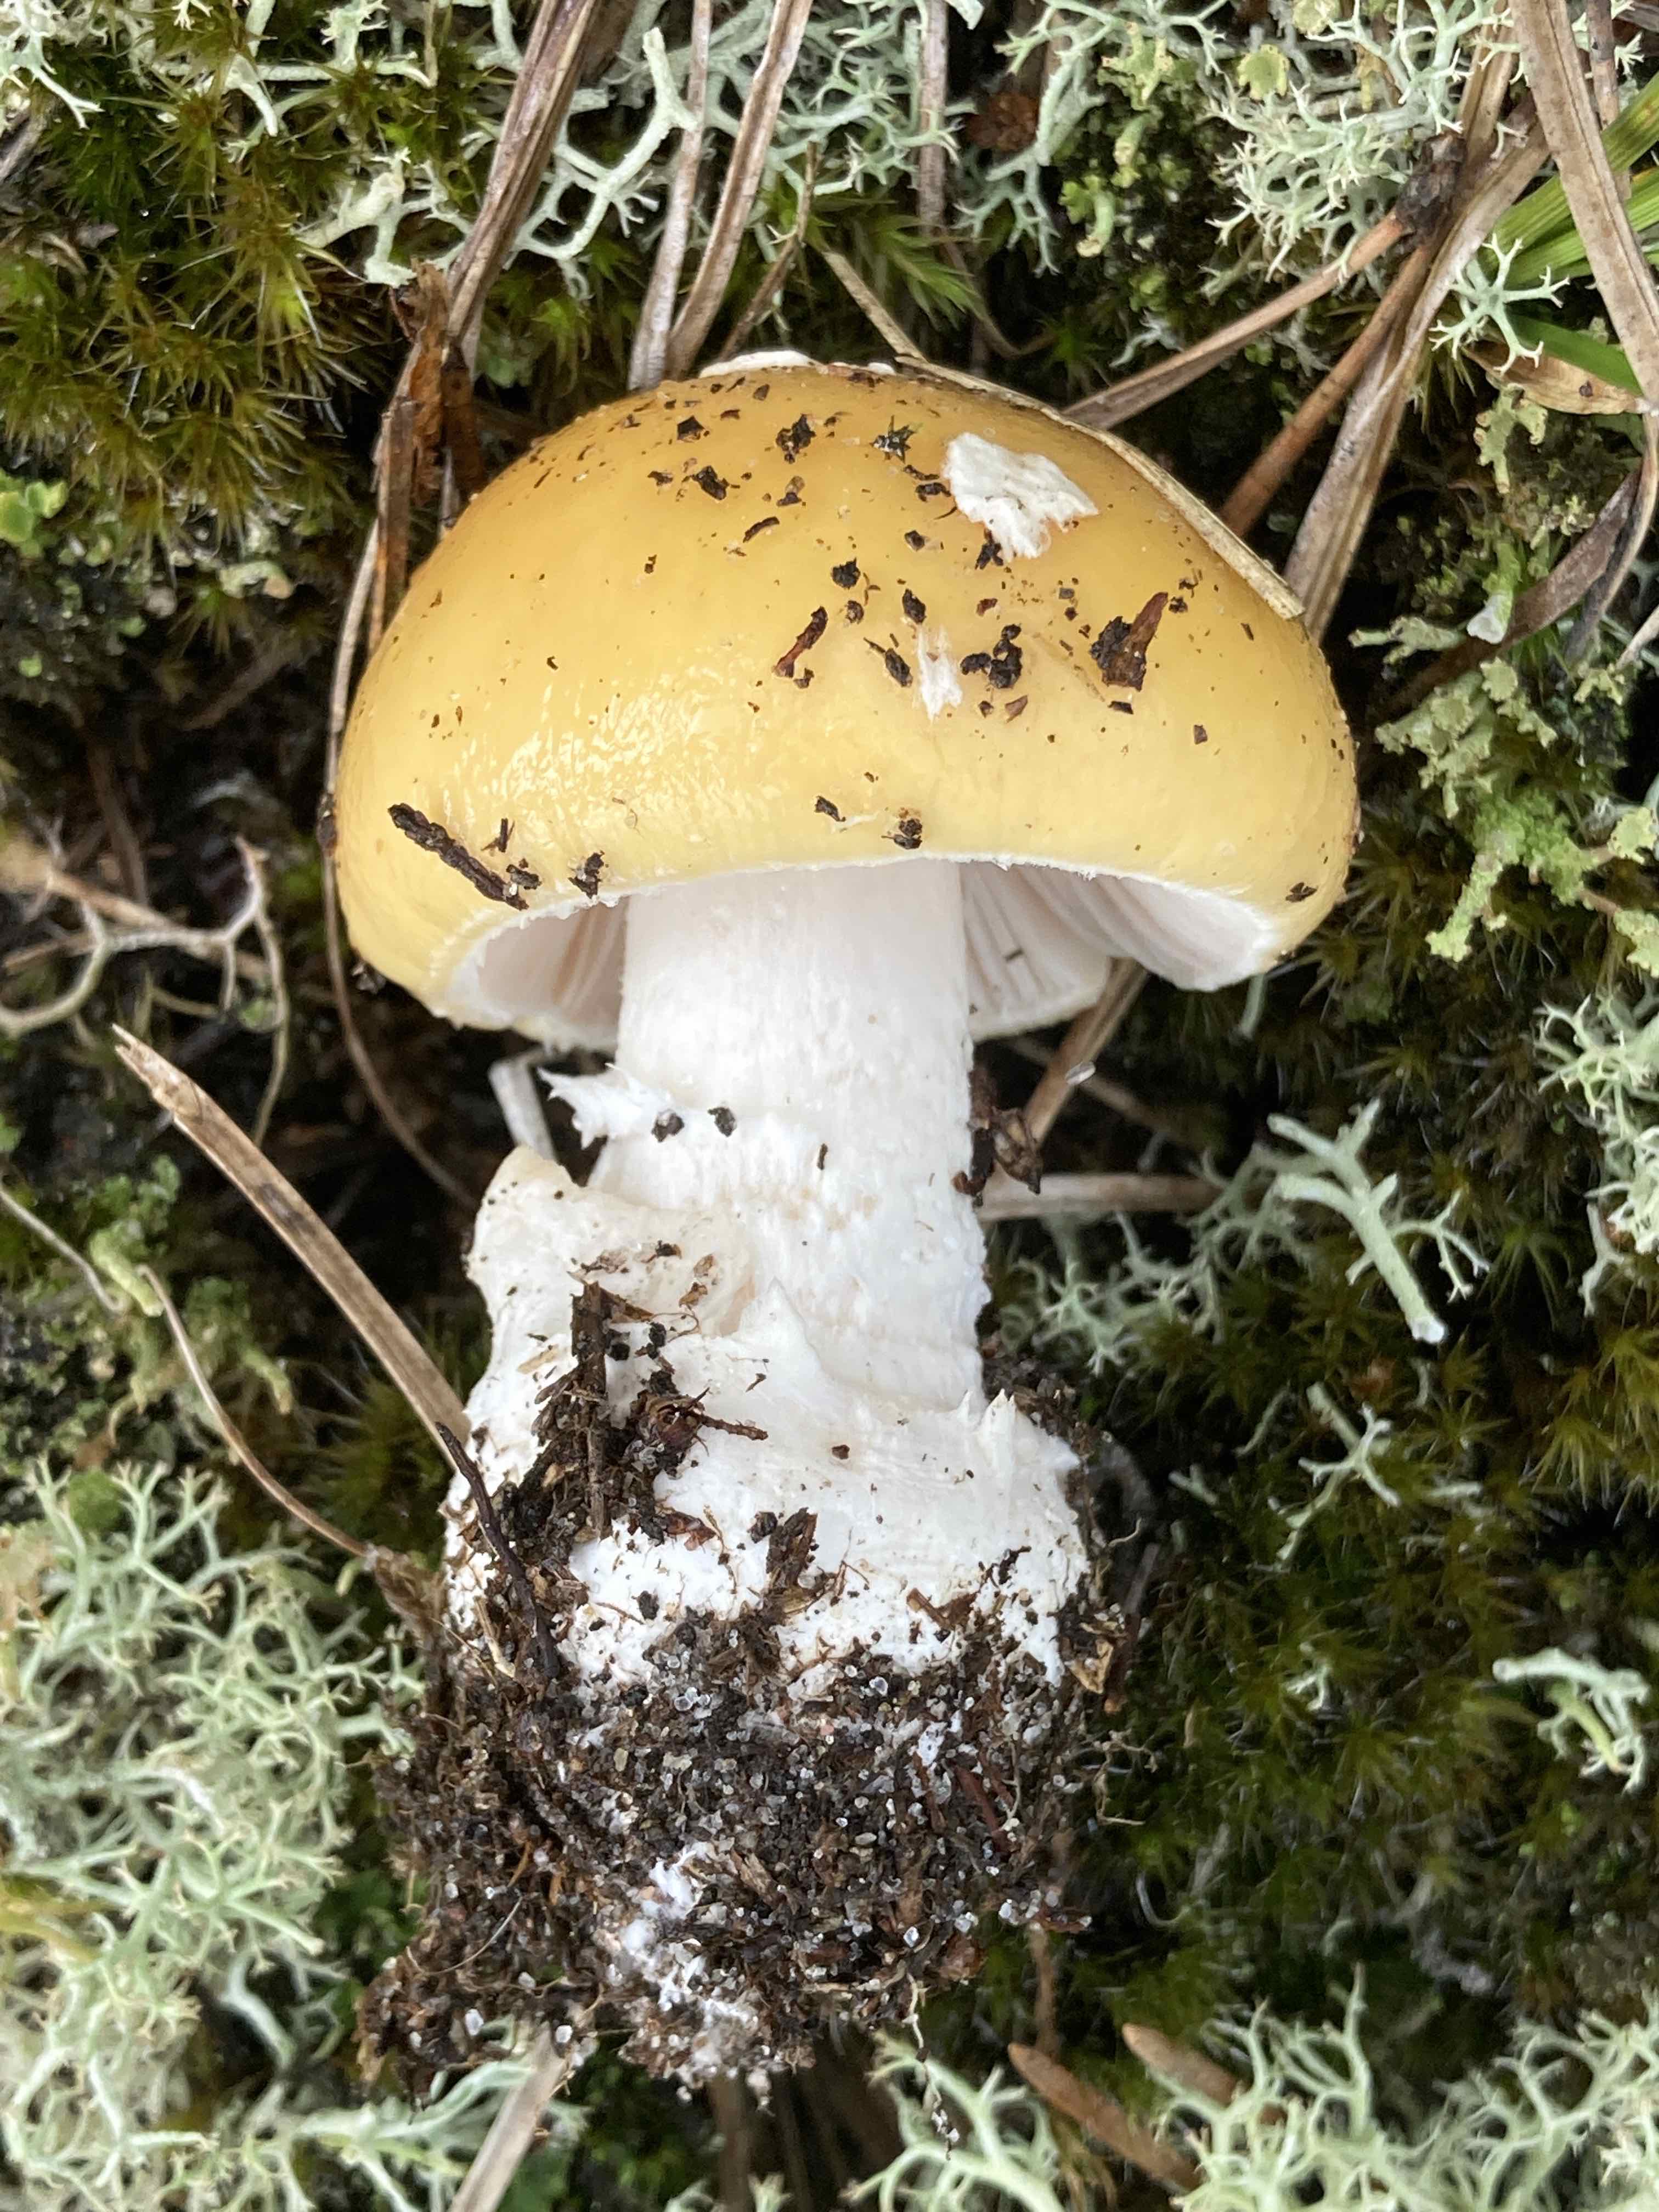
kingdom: Fungi
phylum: Basidiomycota
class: Agaricomycetes
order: Agaricales
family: Amanitaceae
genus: Amanita
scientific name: Amanita gemmata
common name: okkergul fluesvamp
